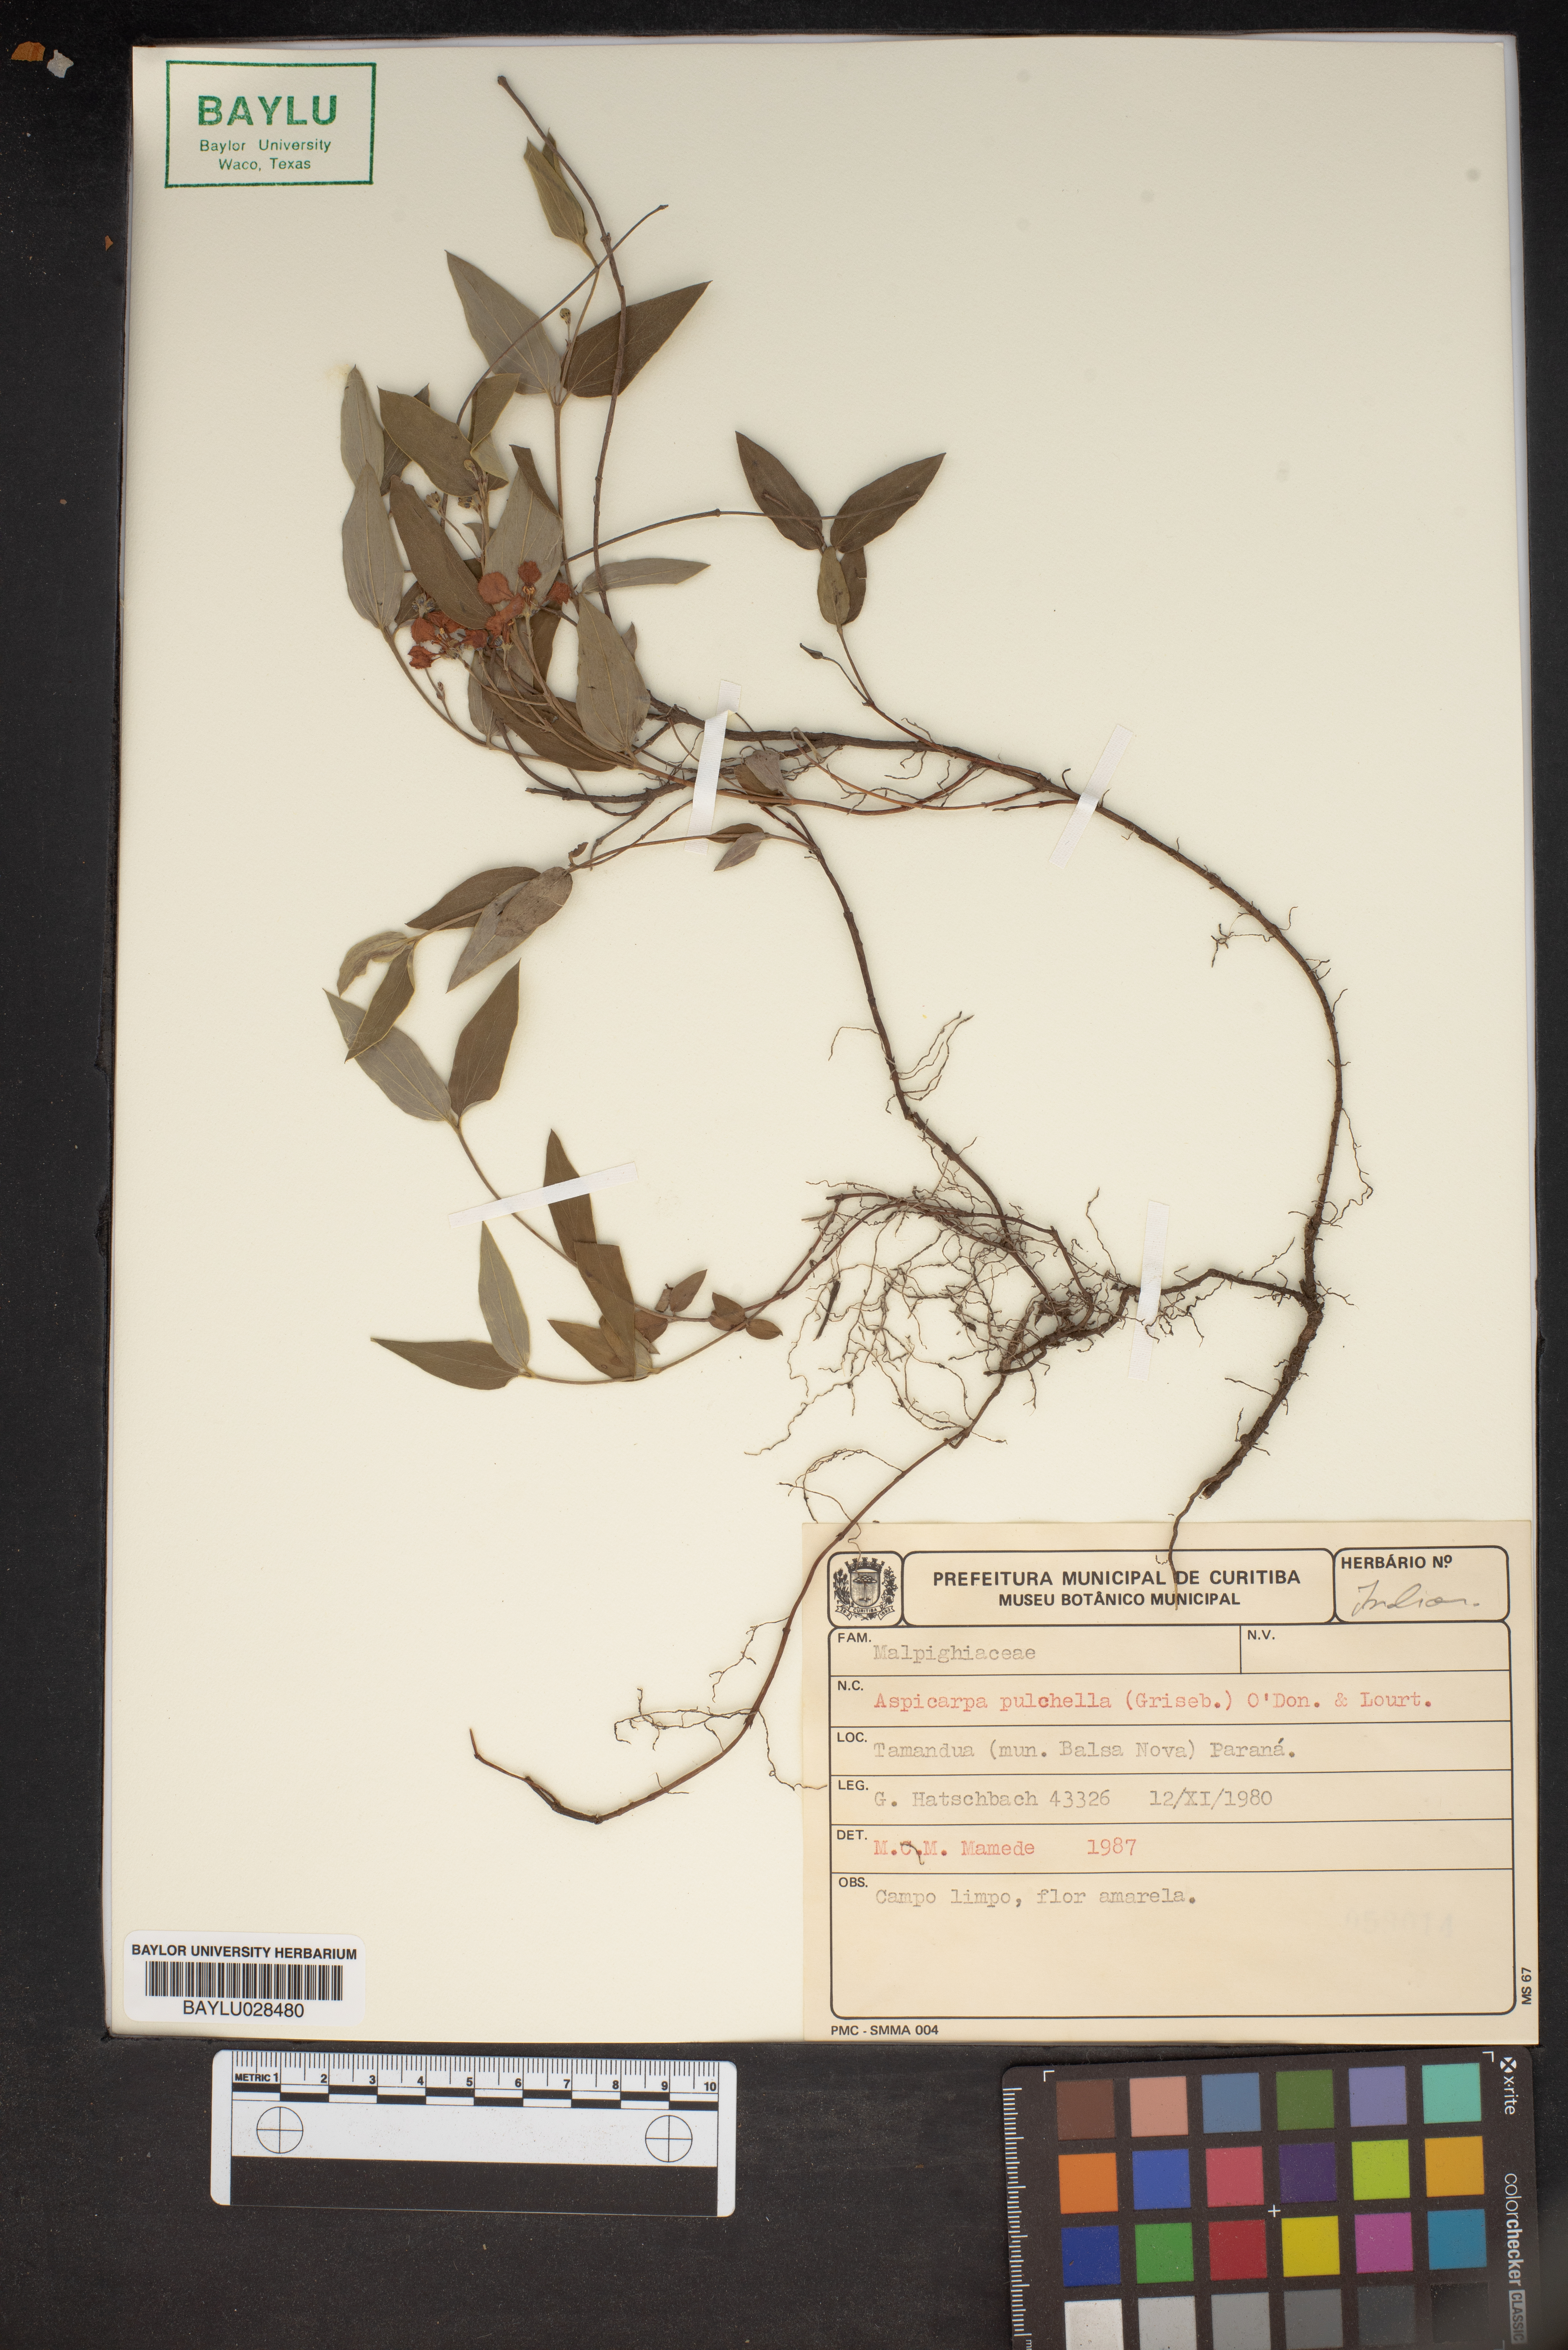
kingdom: Plantae
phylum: Tracheophyta
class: Magnoliopsida
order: Malpighiales
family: Malpighiaceae
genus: Aspicarpa
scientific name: Aspicarpa pulchella
